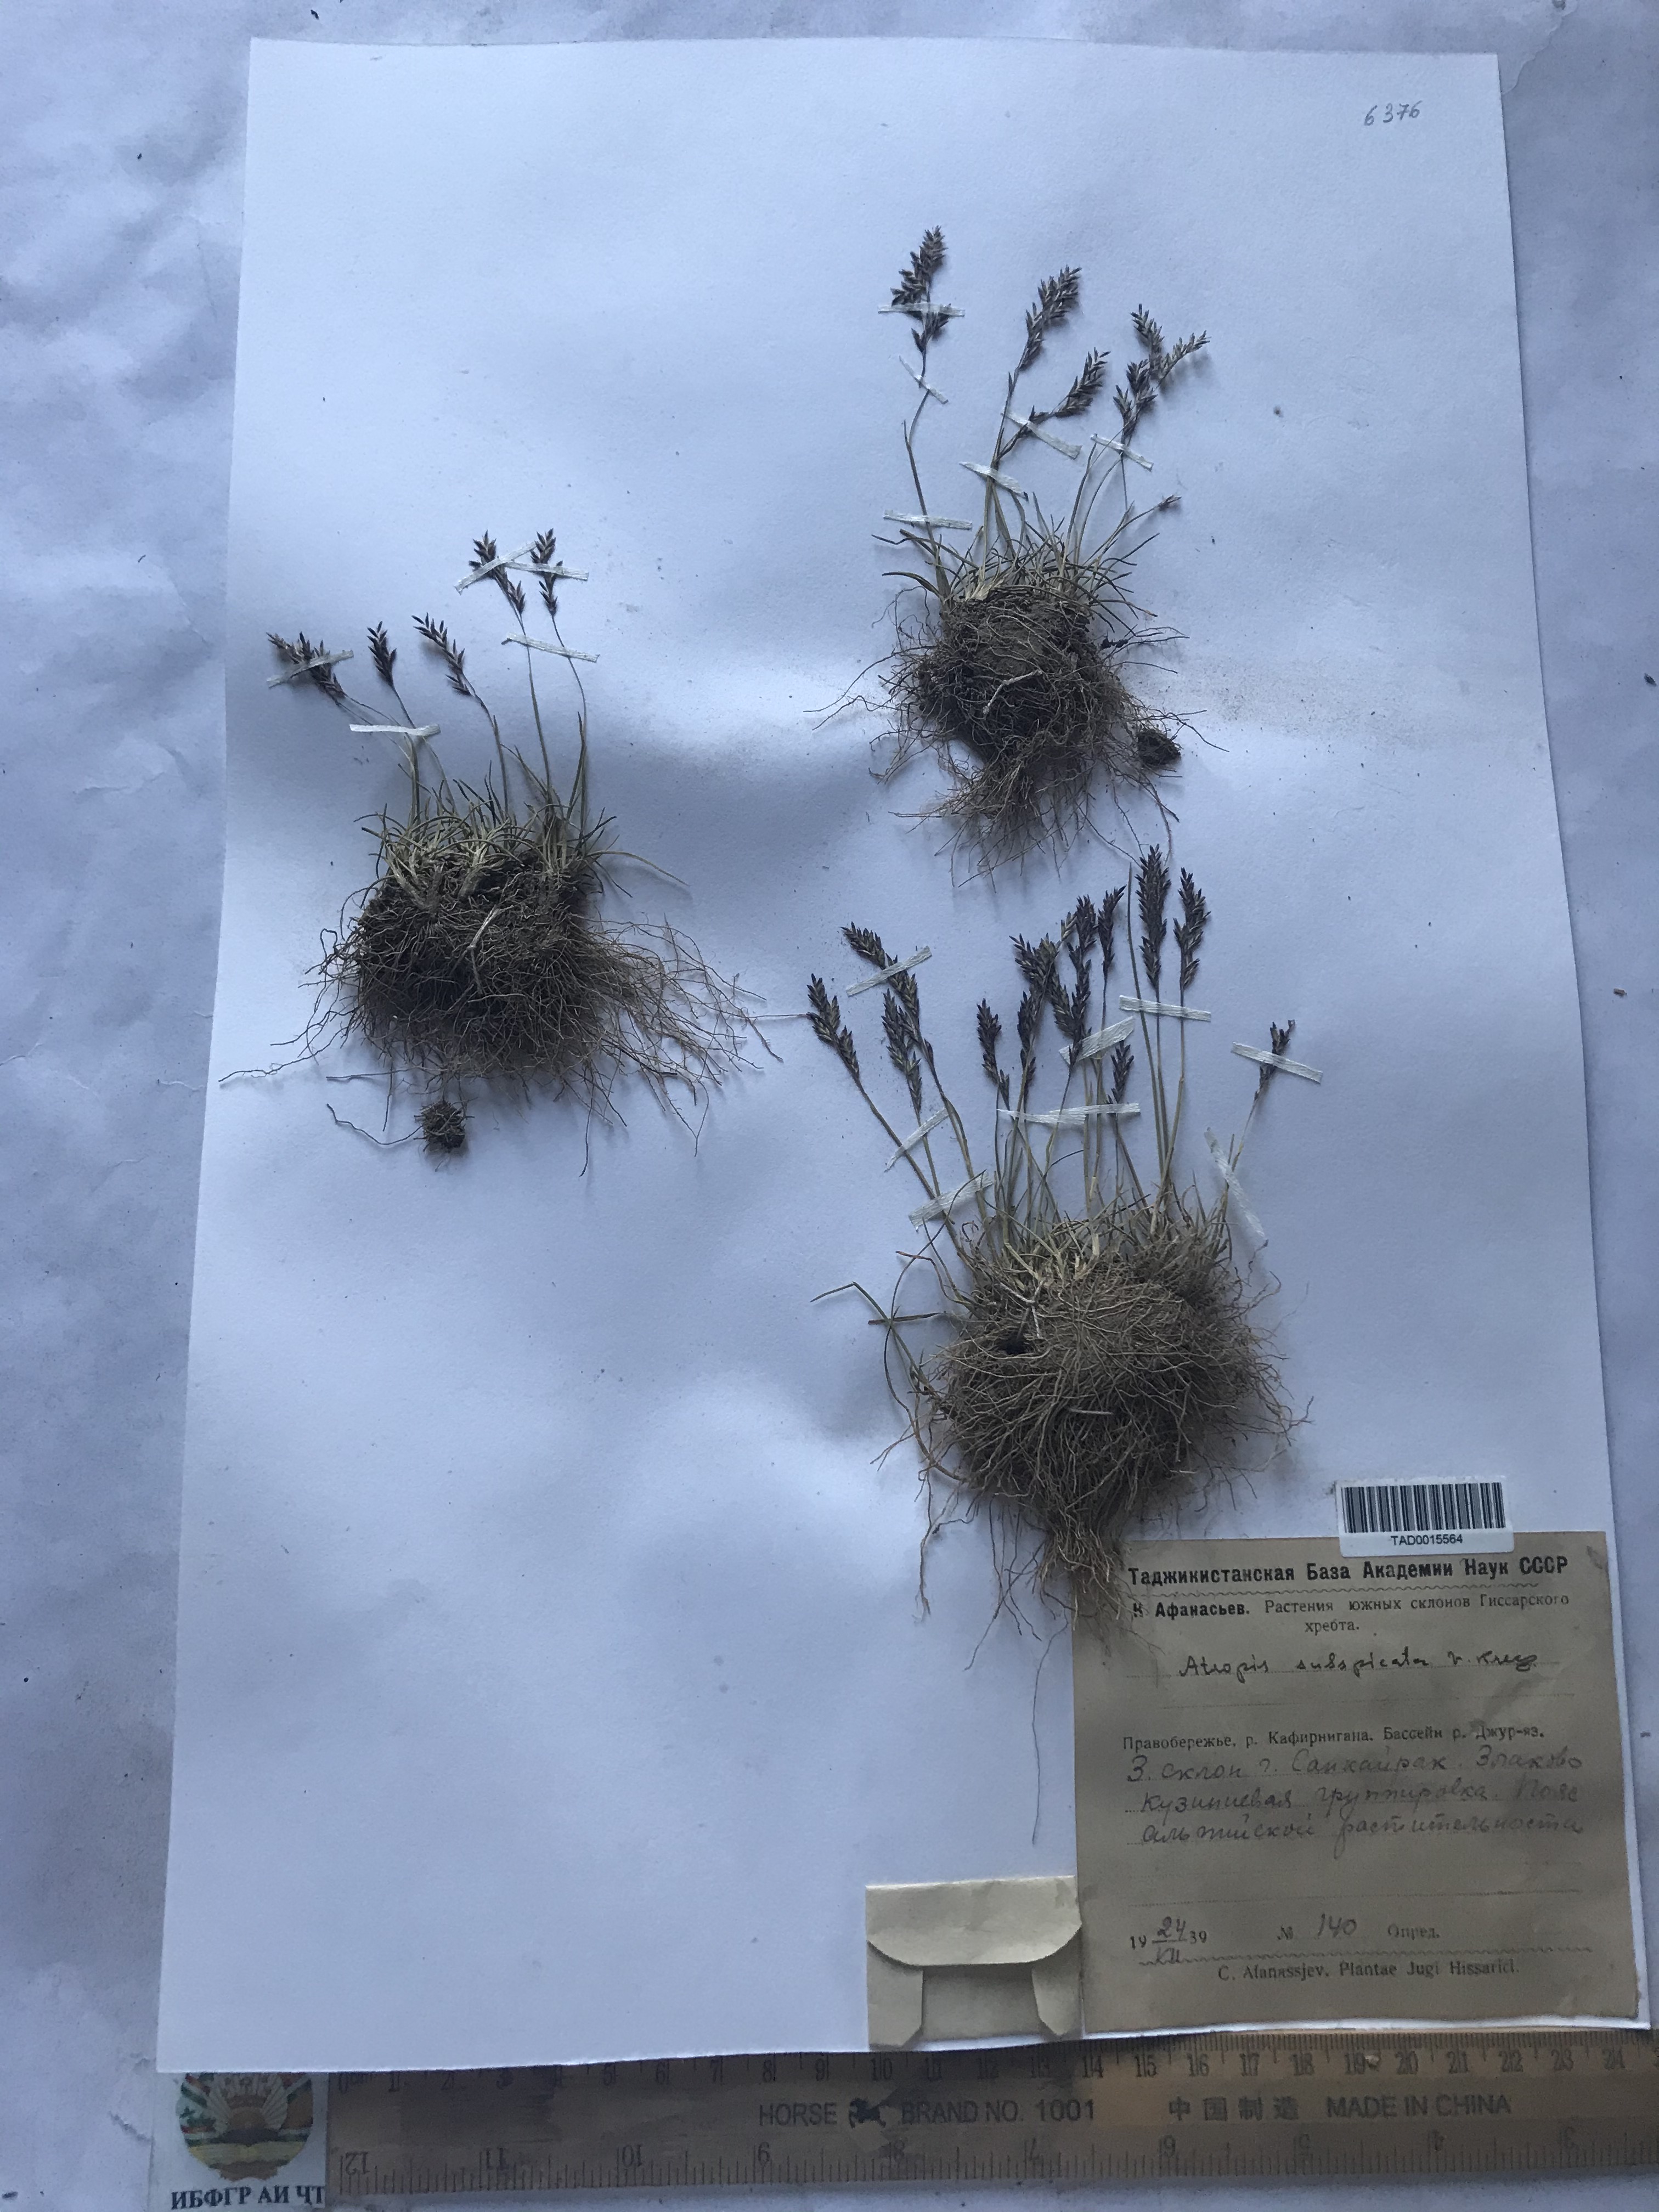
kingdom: Plantae
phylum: Tracheophyta
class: Liliopsida
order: Poales
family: Poaceae
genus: Puccinellia
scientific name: Puccinellia subspicata
